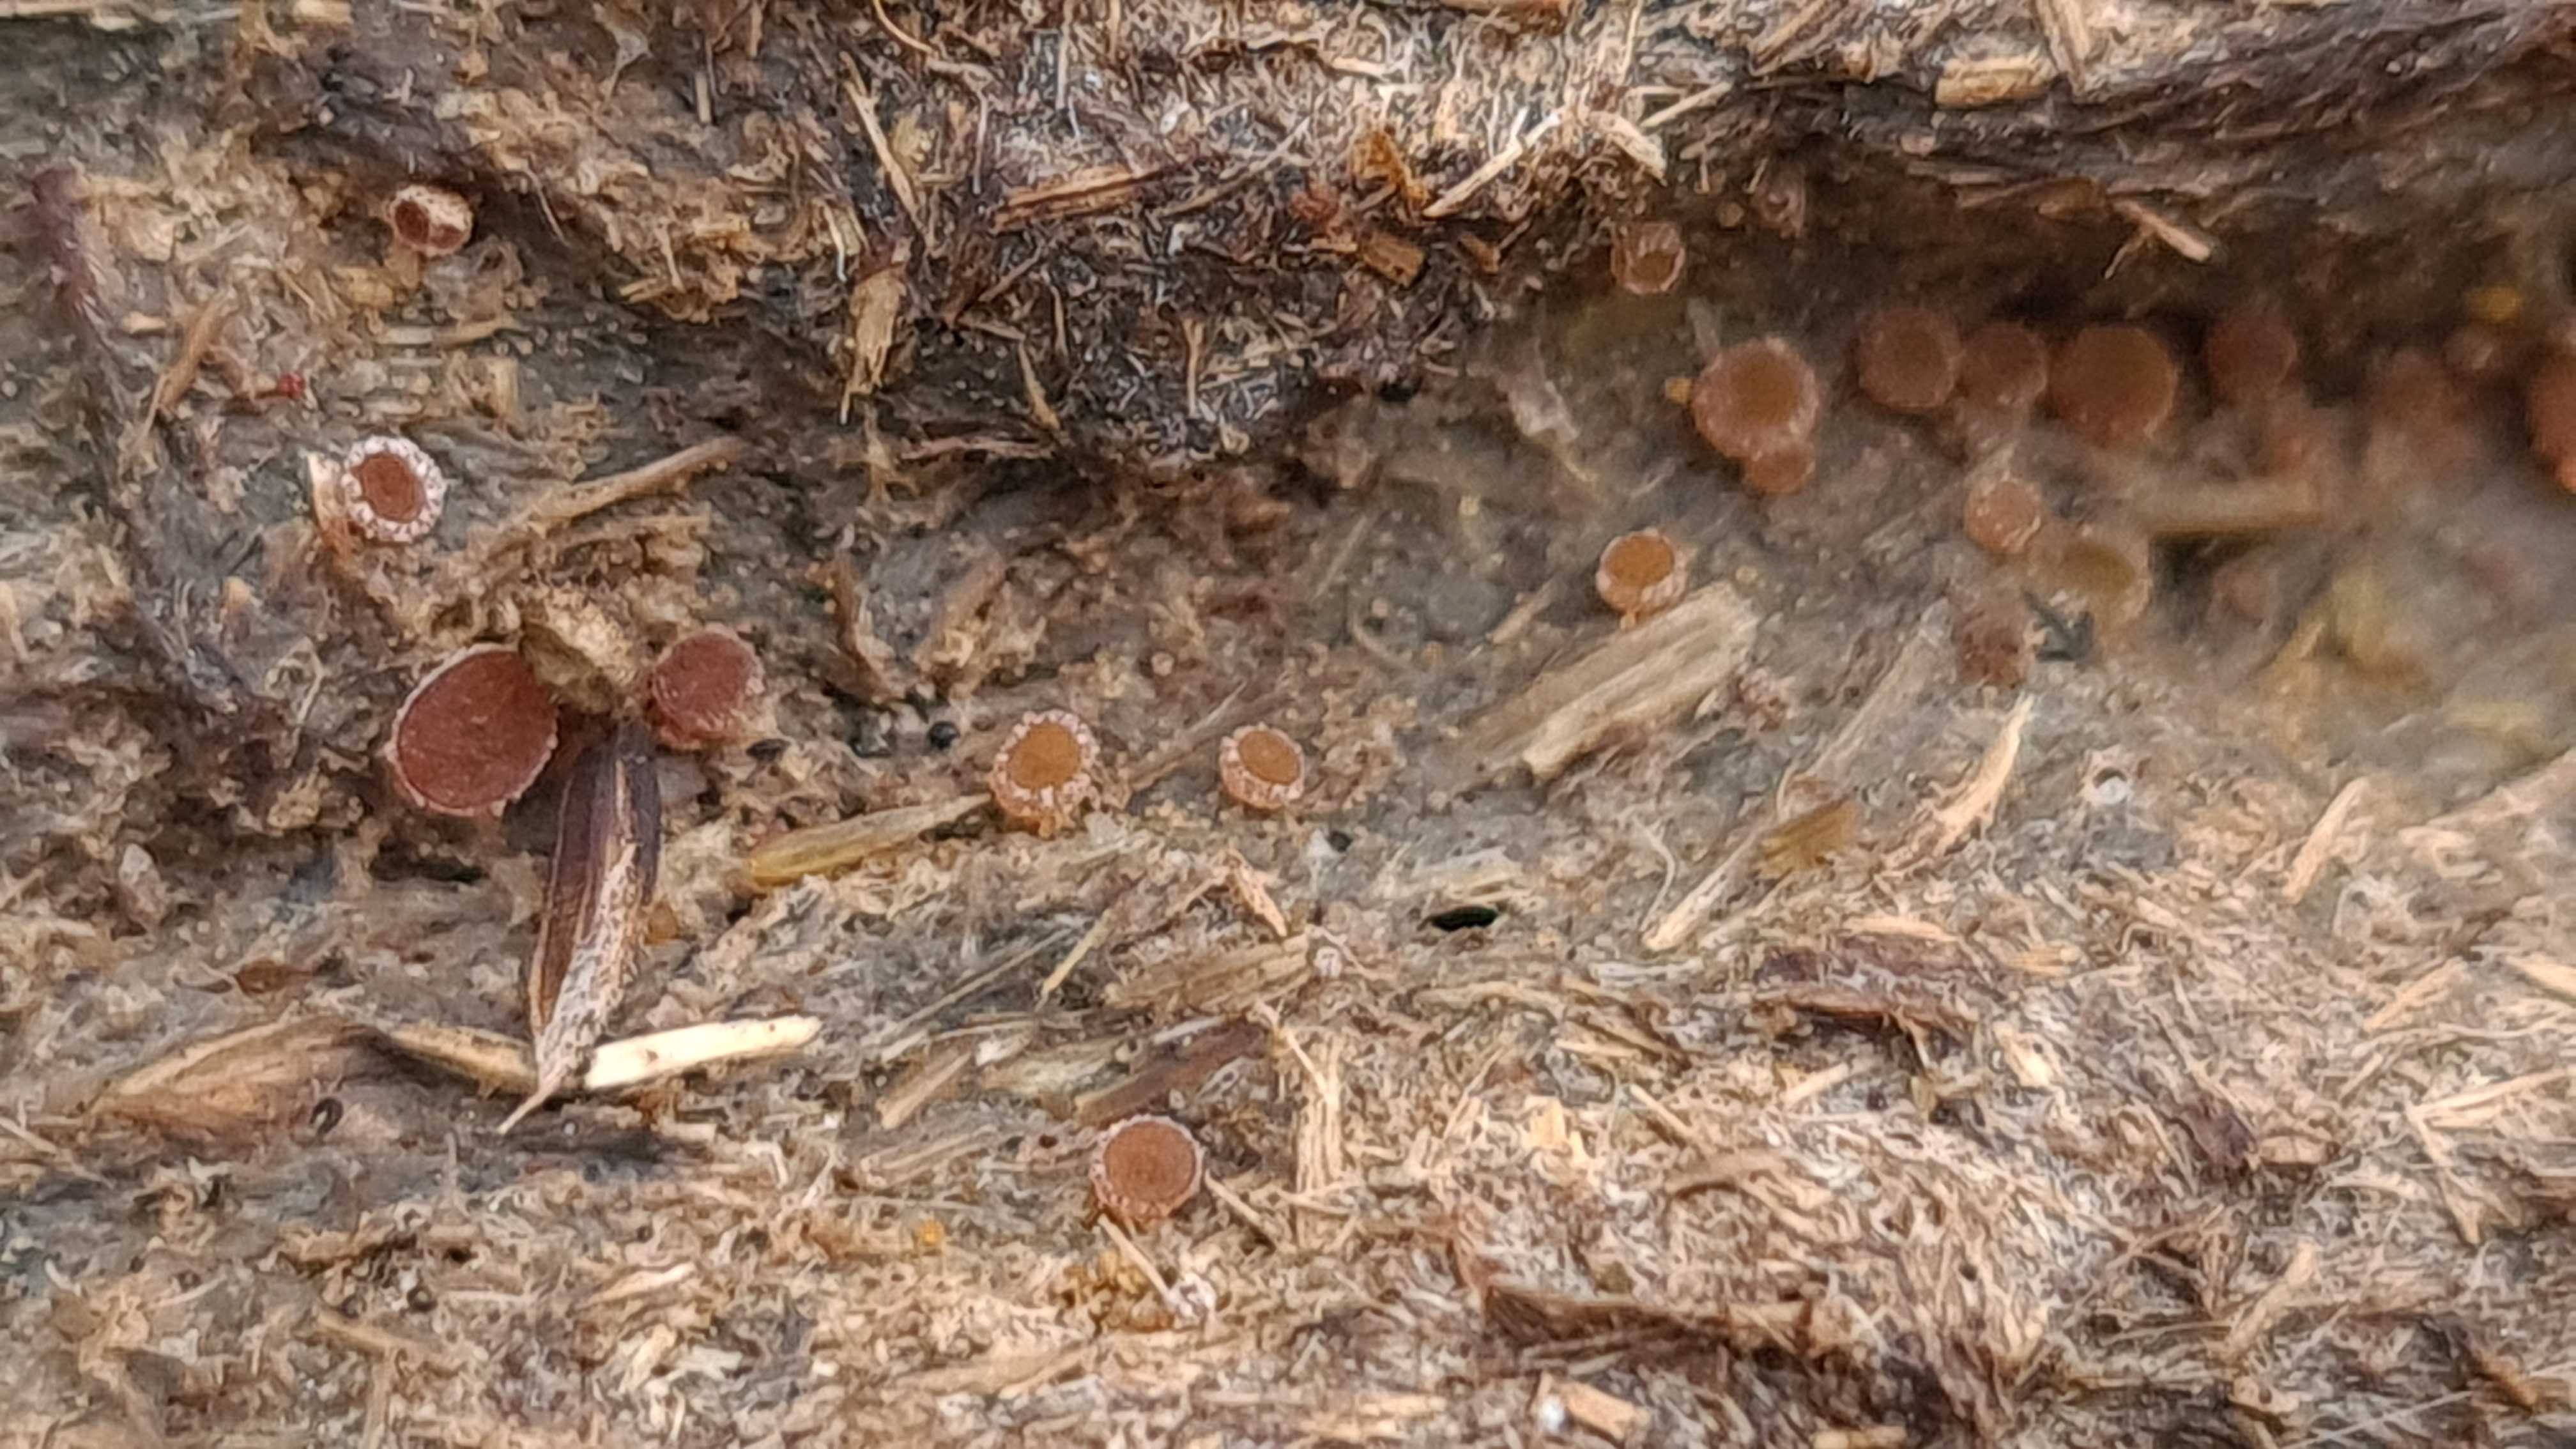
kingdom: Fungi
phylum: Ascomycota
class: Pezizomycetes
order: Pezizales
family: Pyronemataceae
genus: Cheilymenia
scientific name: Cheilymenia granulata
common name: møgbæger
